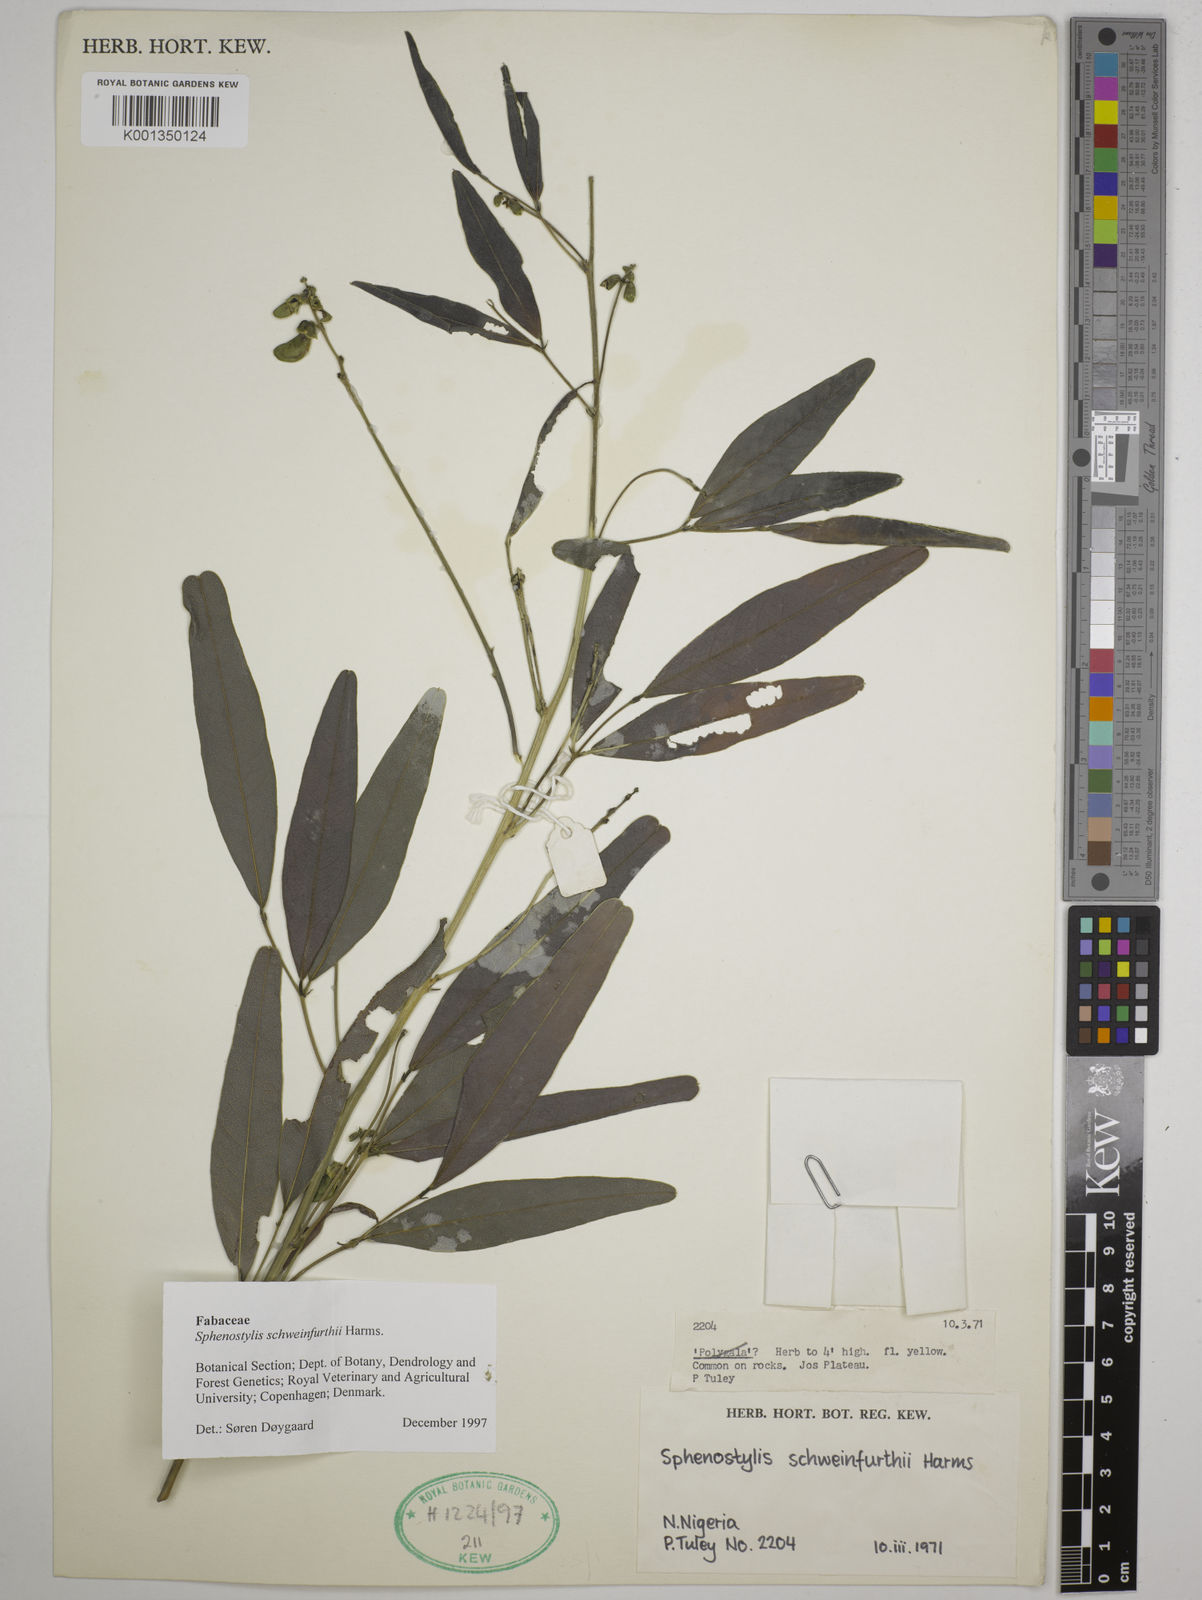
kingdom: Plantae
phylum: Tracheophyta
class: Magnoliopsida
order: Fabales
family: Fabaceae
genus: Sphenostylis
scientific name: Sphenostylis schweinfurthii
